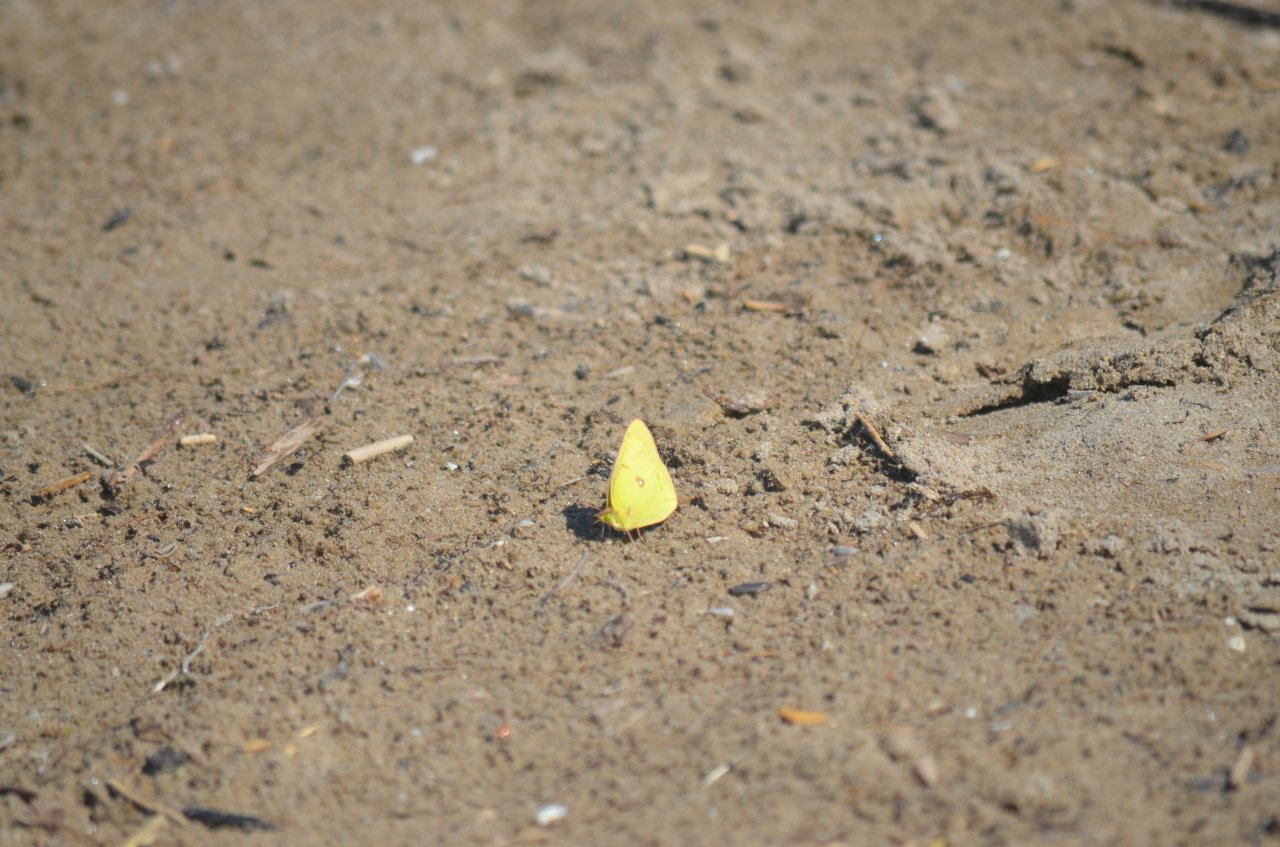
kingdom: Animalia
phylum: Arthropoda
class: Insecta
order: Lepidoptera
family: Pieridae
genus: Colias
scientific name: Colias philodice
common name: Clouded Sulphur
